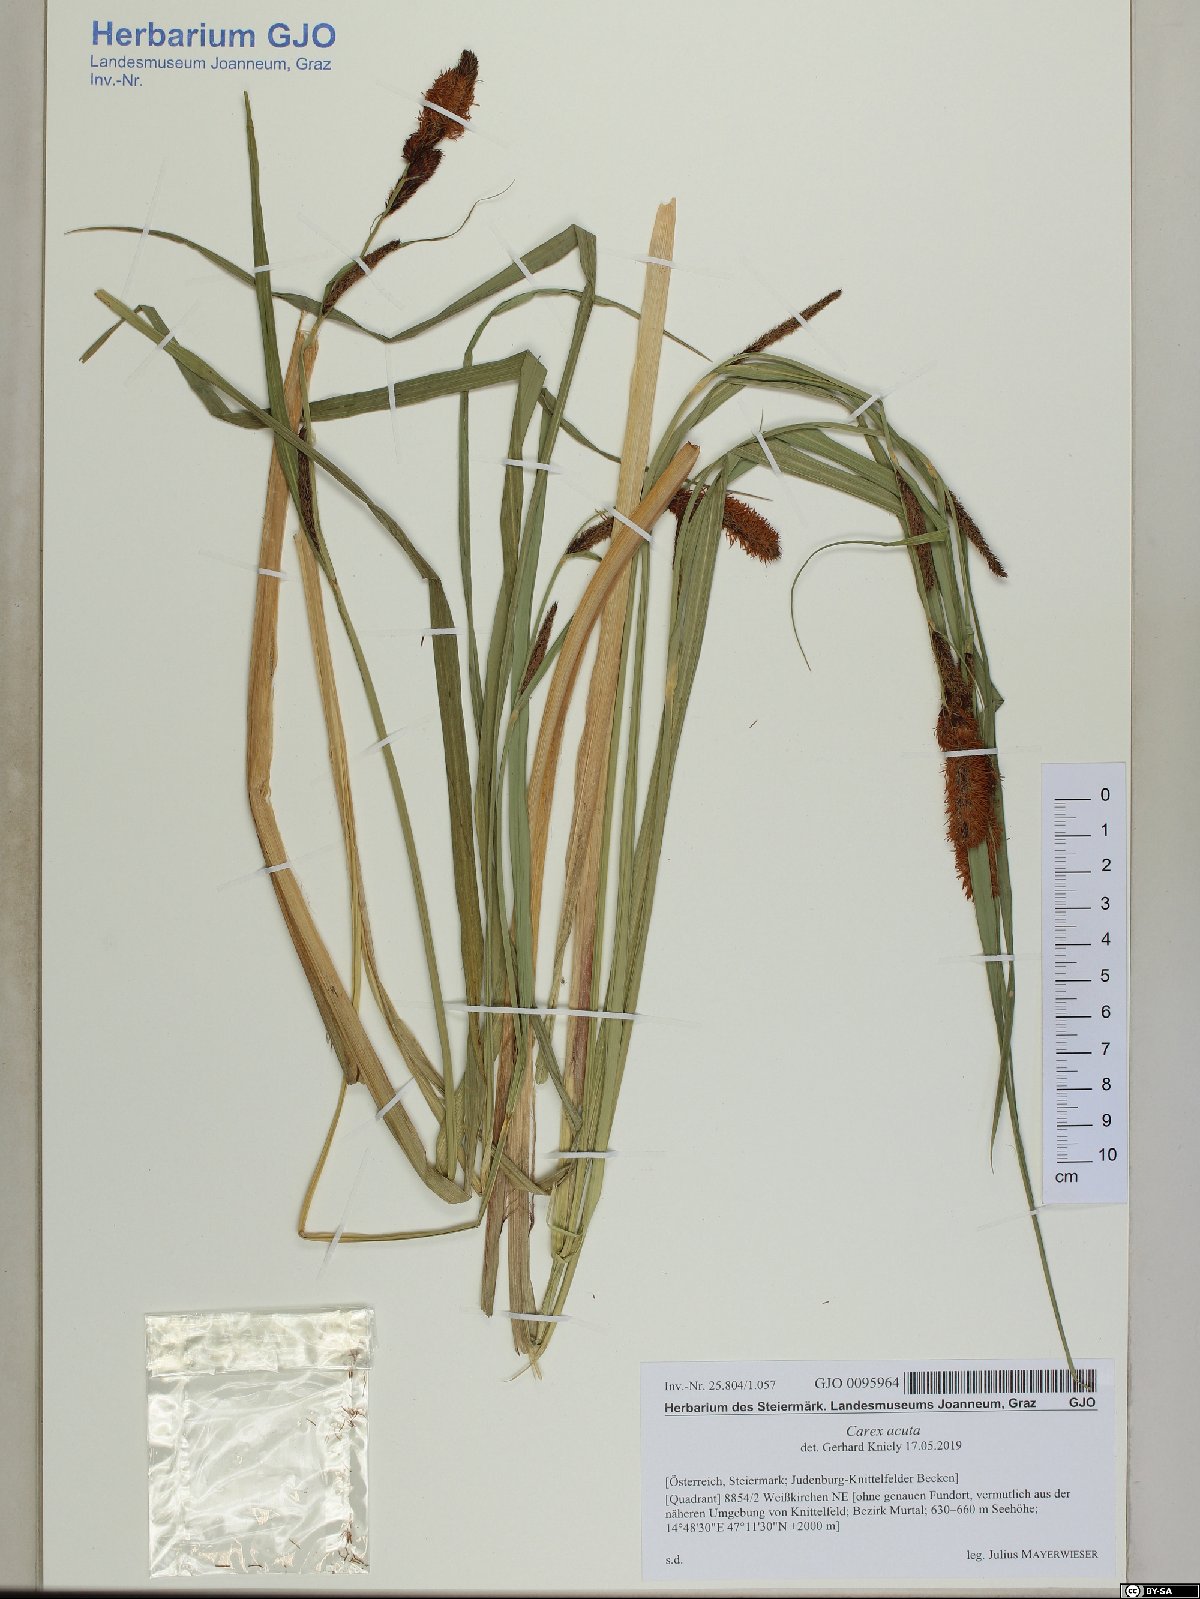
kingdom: Plantae
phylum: Tracheophyta
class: Liliopsida
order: Poales
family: Cyperaceae
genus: Carex
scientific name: Carex acuta
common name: Slender tufted-sedge
